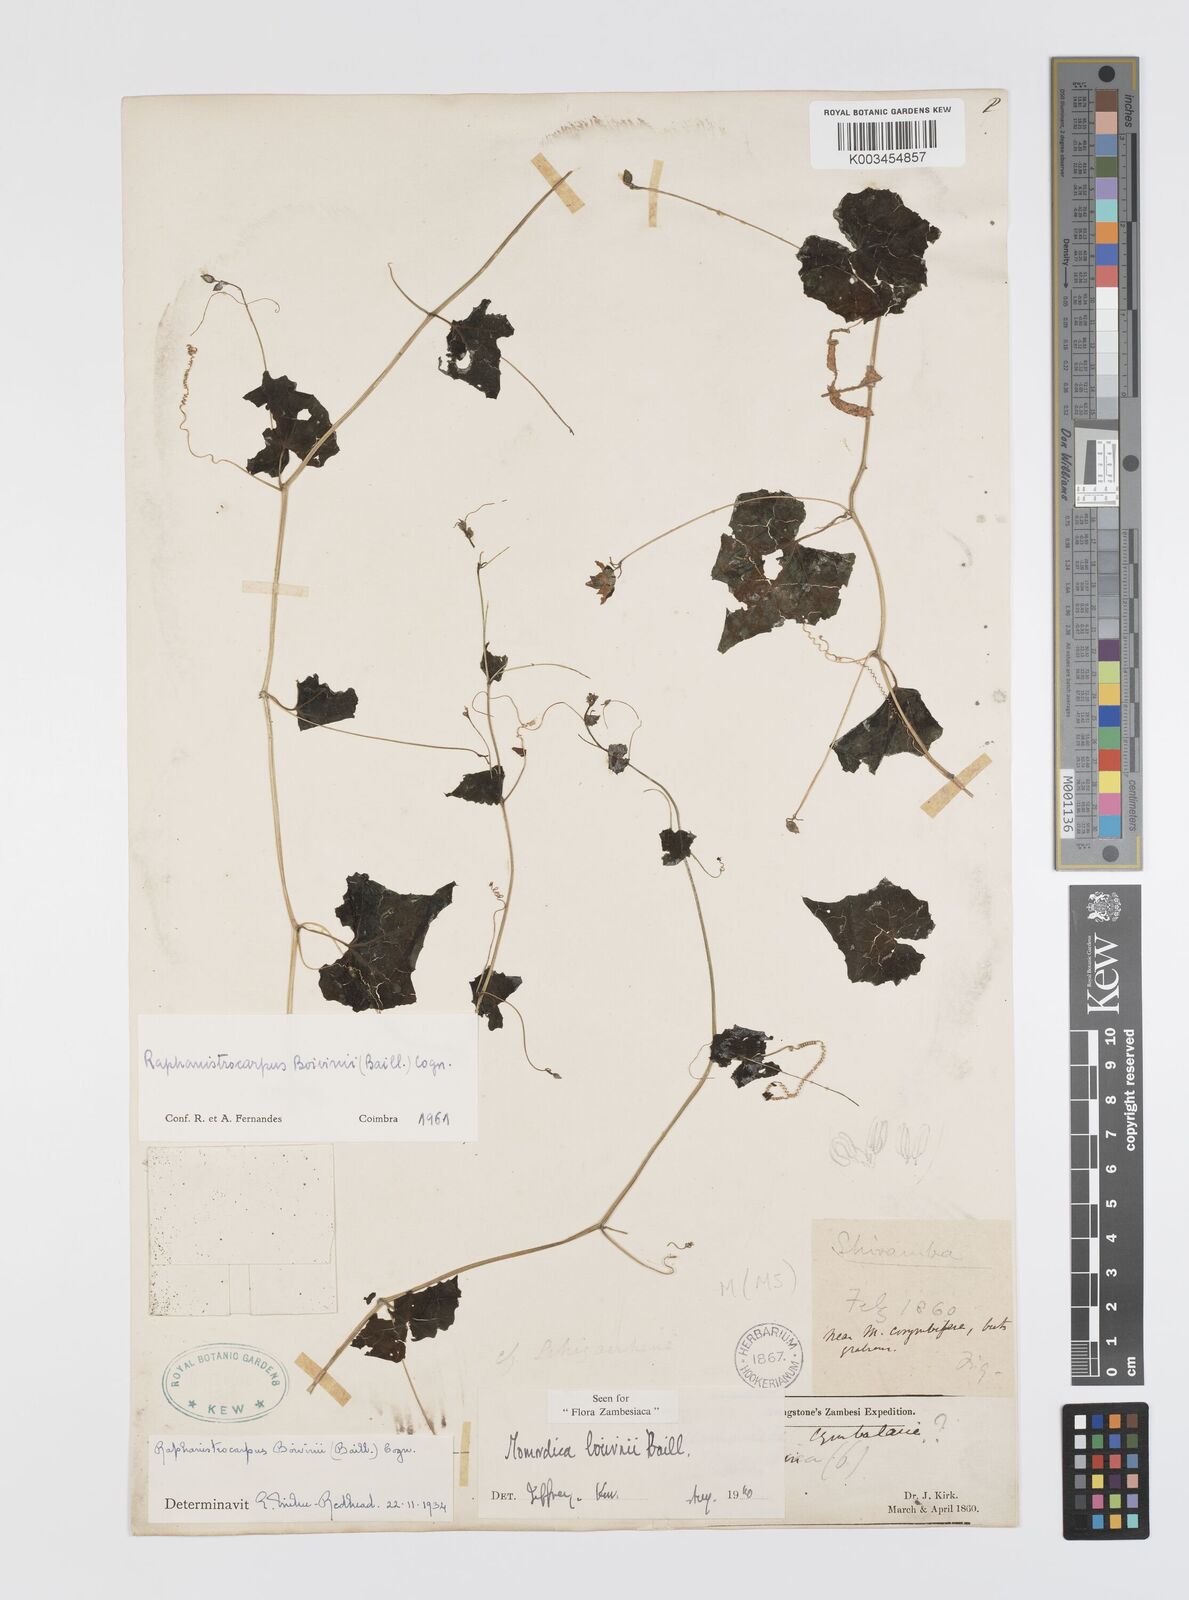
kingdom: Plantae
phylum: Tracheophyta
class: Magnoliopsida
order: Cucurbitales
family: Cucurbitaceae
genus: Momordica
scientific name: Momordica boivinii
